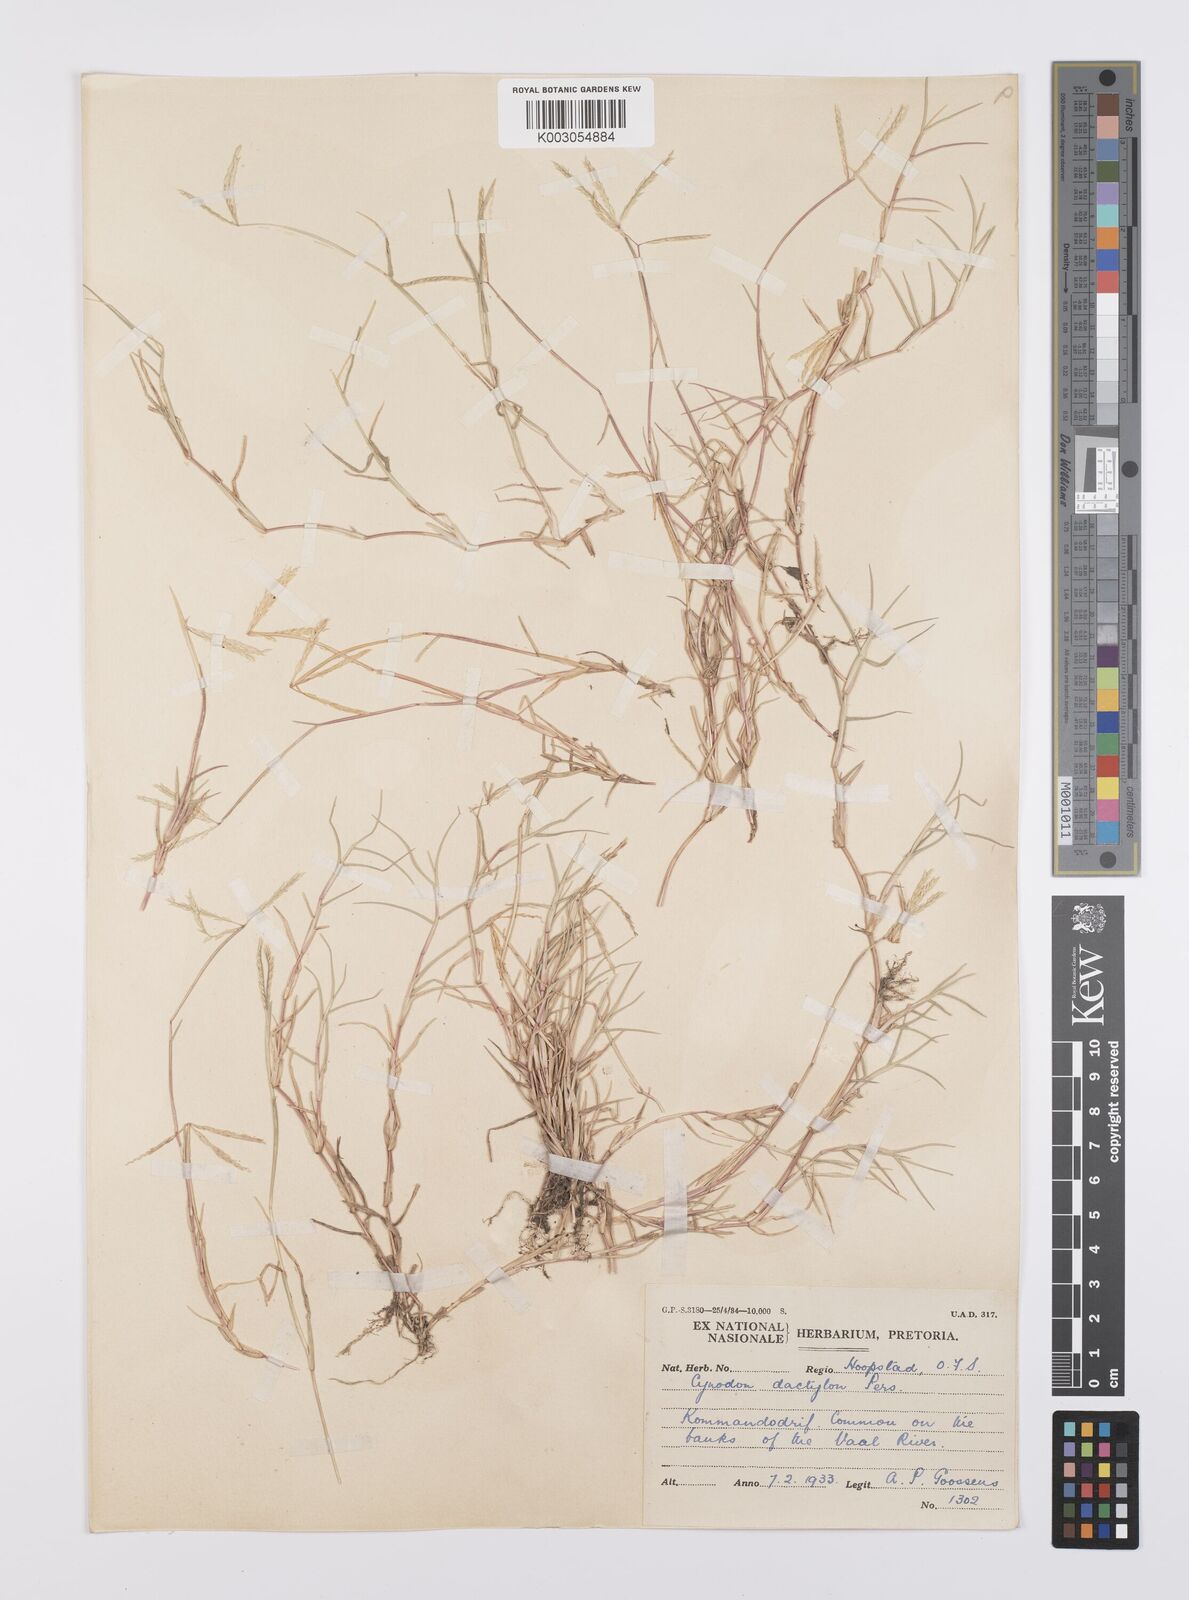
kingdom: Plantae
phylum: Tracheophyta
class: Liliopsida
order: Poales
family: Poaceae
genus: Cynodon
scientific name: Cynodon dactylon
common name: Bermuda grass
